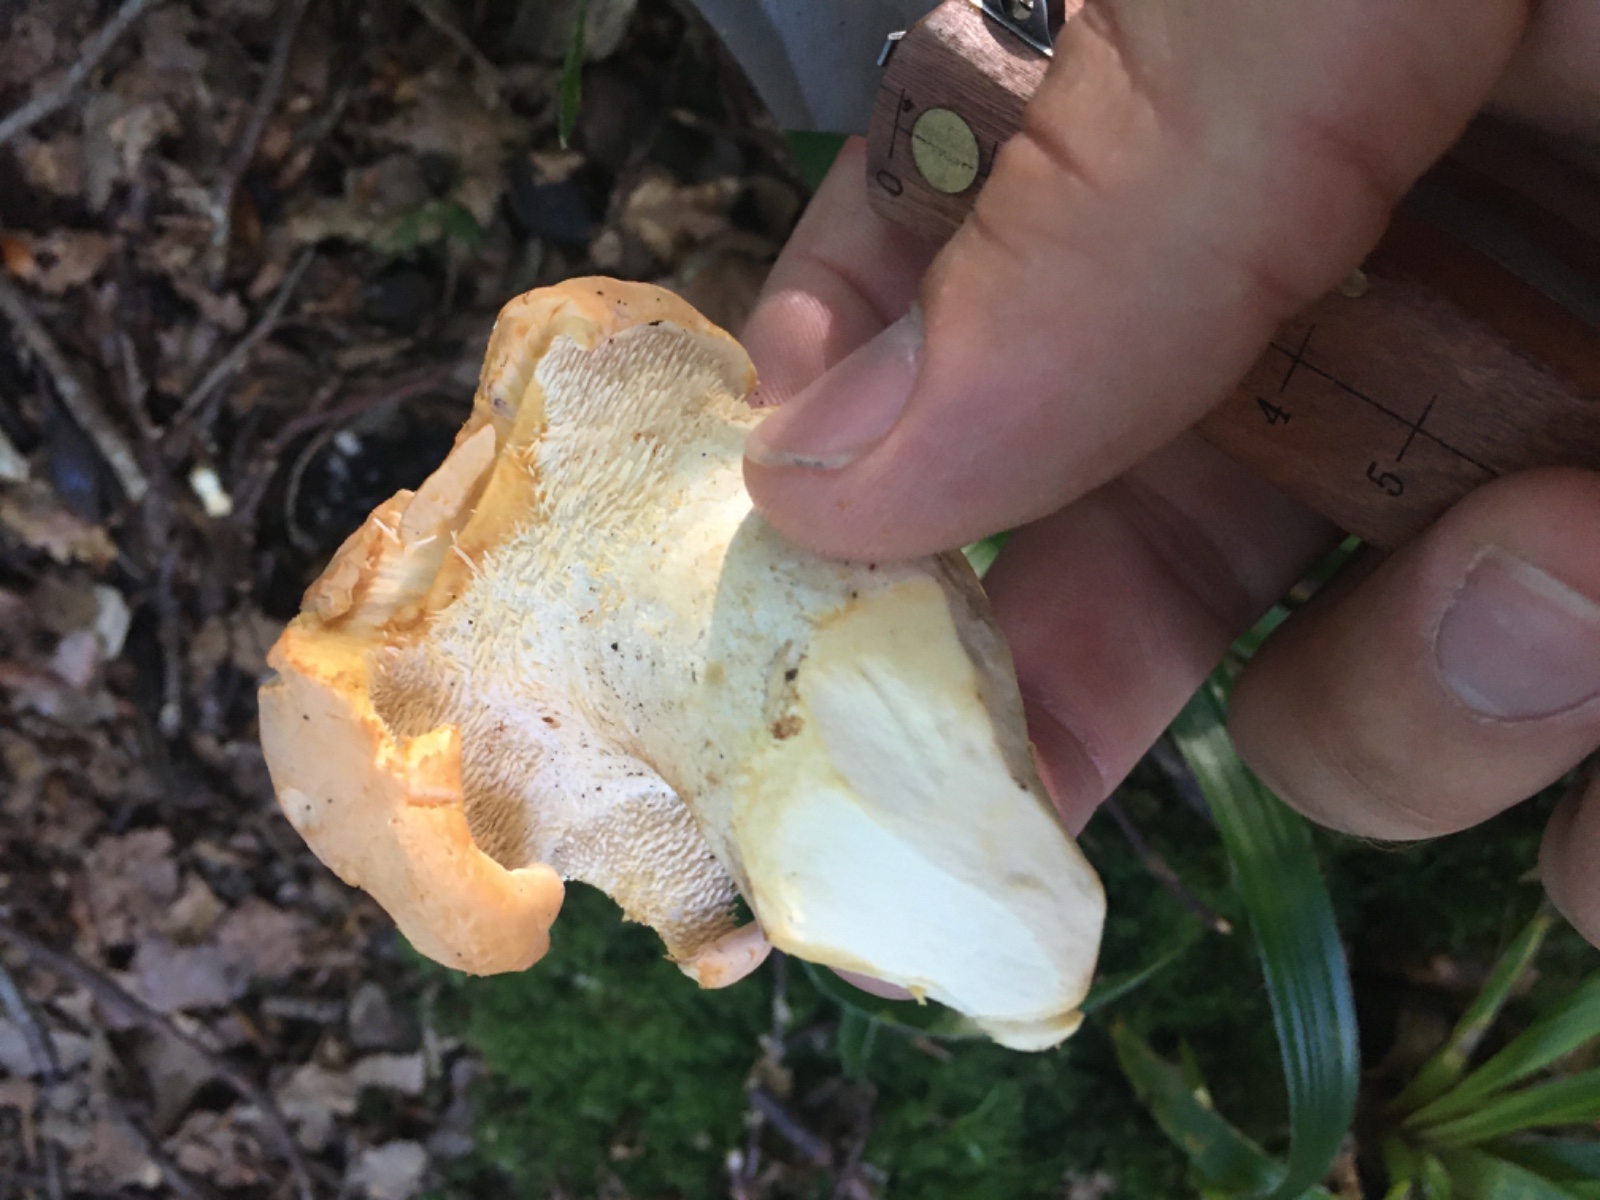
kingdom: Fungi
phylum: Basidiomycota
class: Agaricomycetes
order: Cantharellales
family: Hydnaceae
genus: Hydnum
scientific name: Hydnum
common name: pigsvamp
